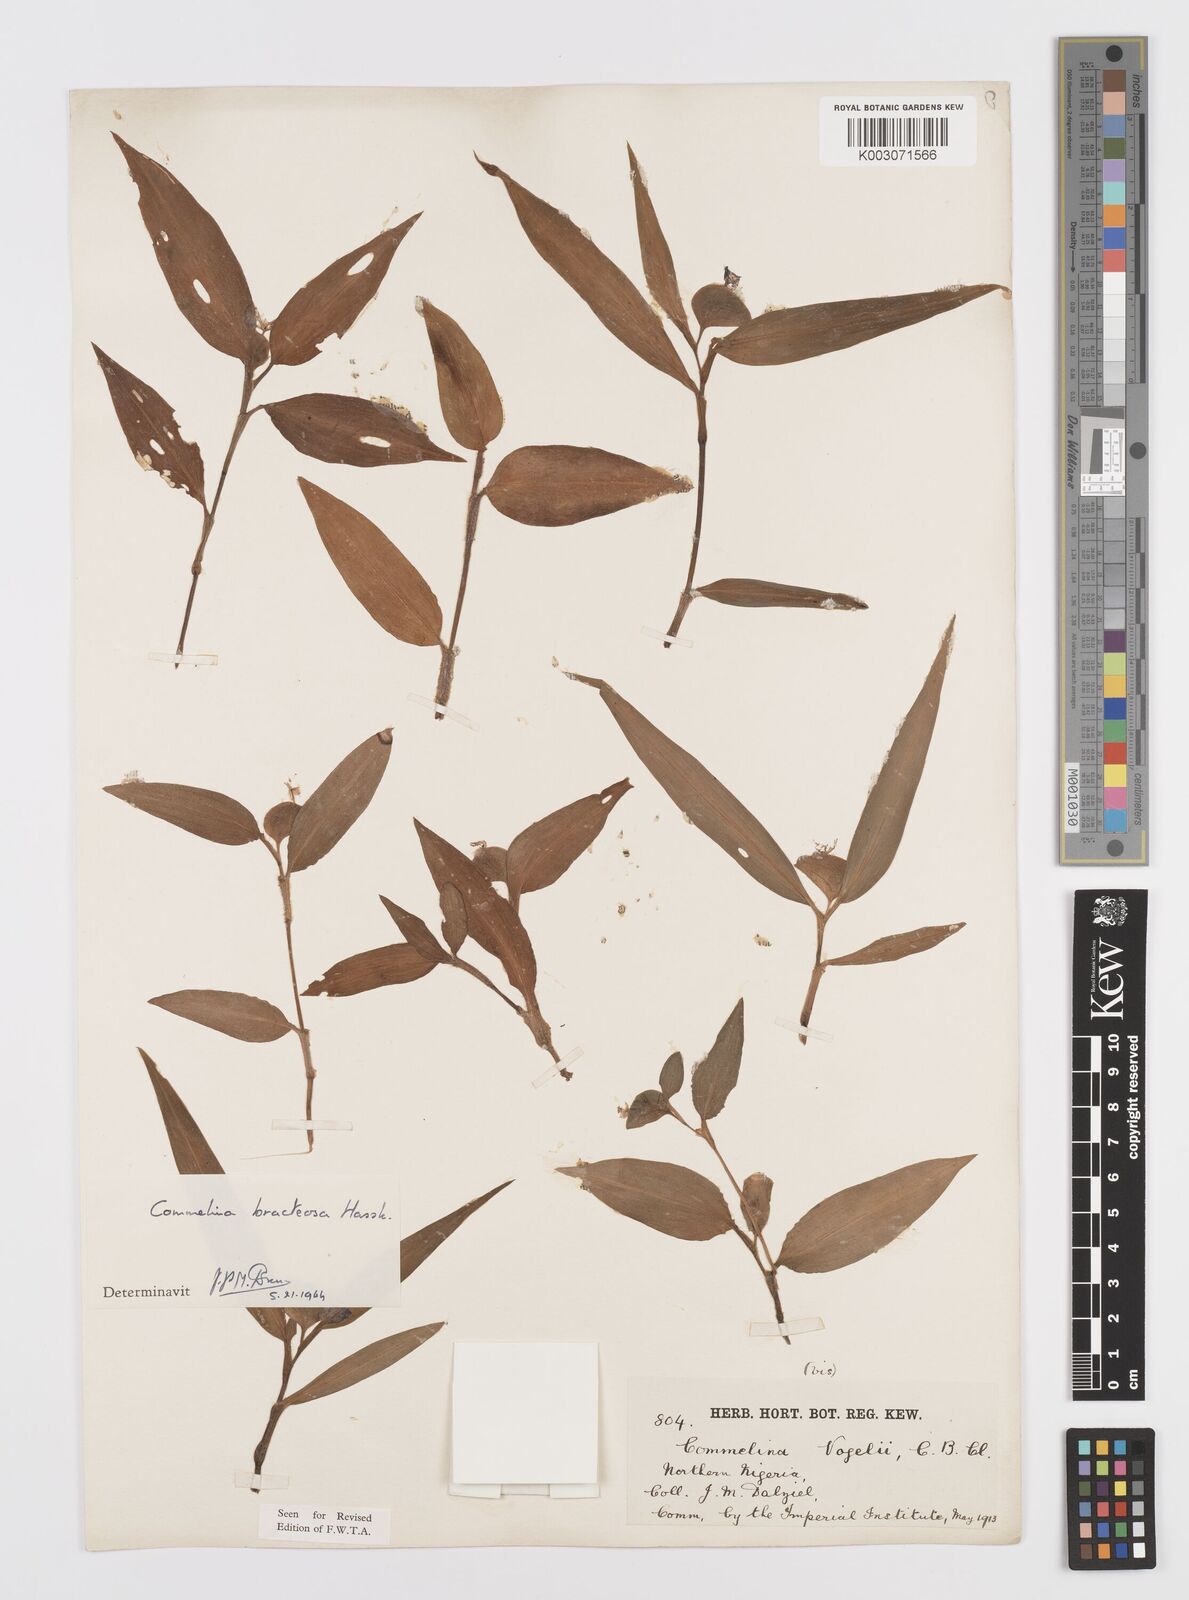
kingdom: Plantae
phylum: Tracheophyta
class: Liliopsida
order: Commelinales
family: Commelinaceae
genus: Commelina
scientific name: Commelina bracteosa
